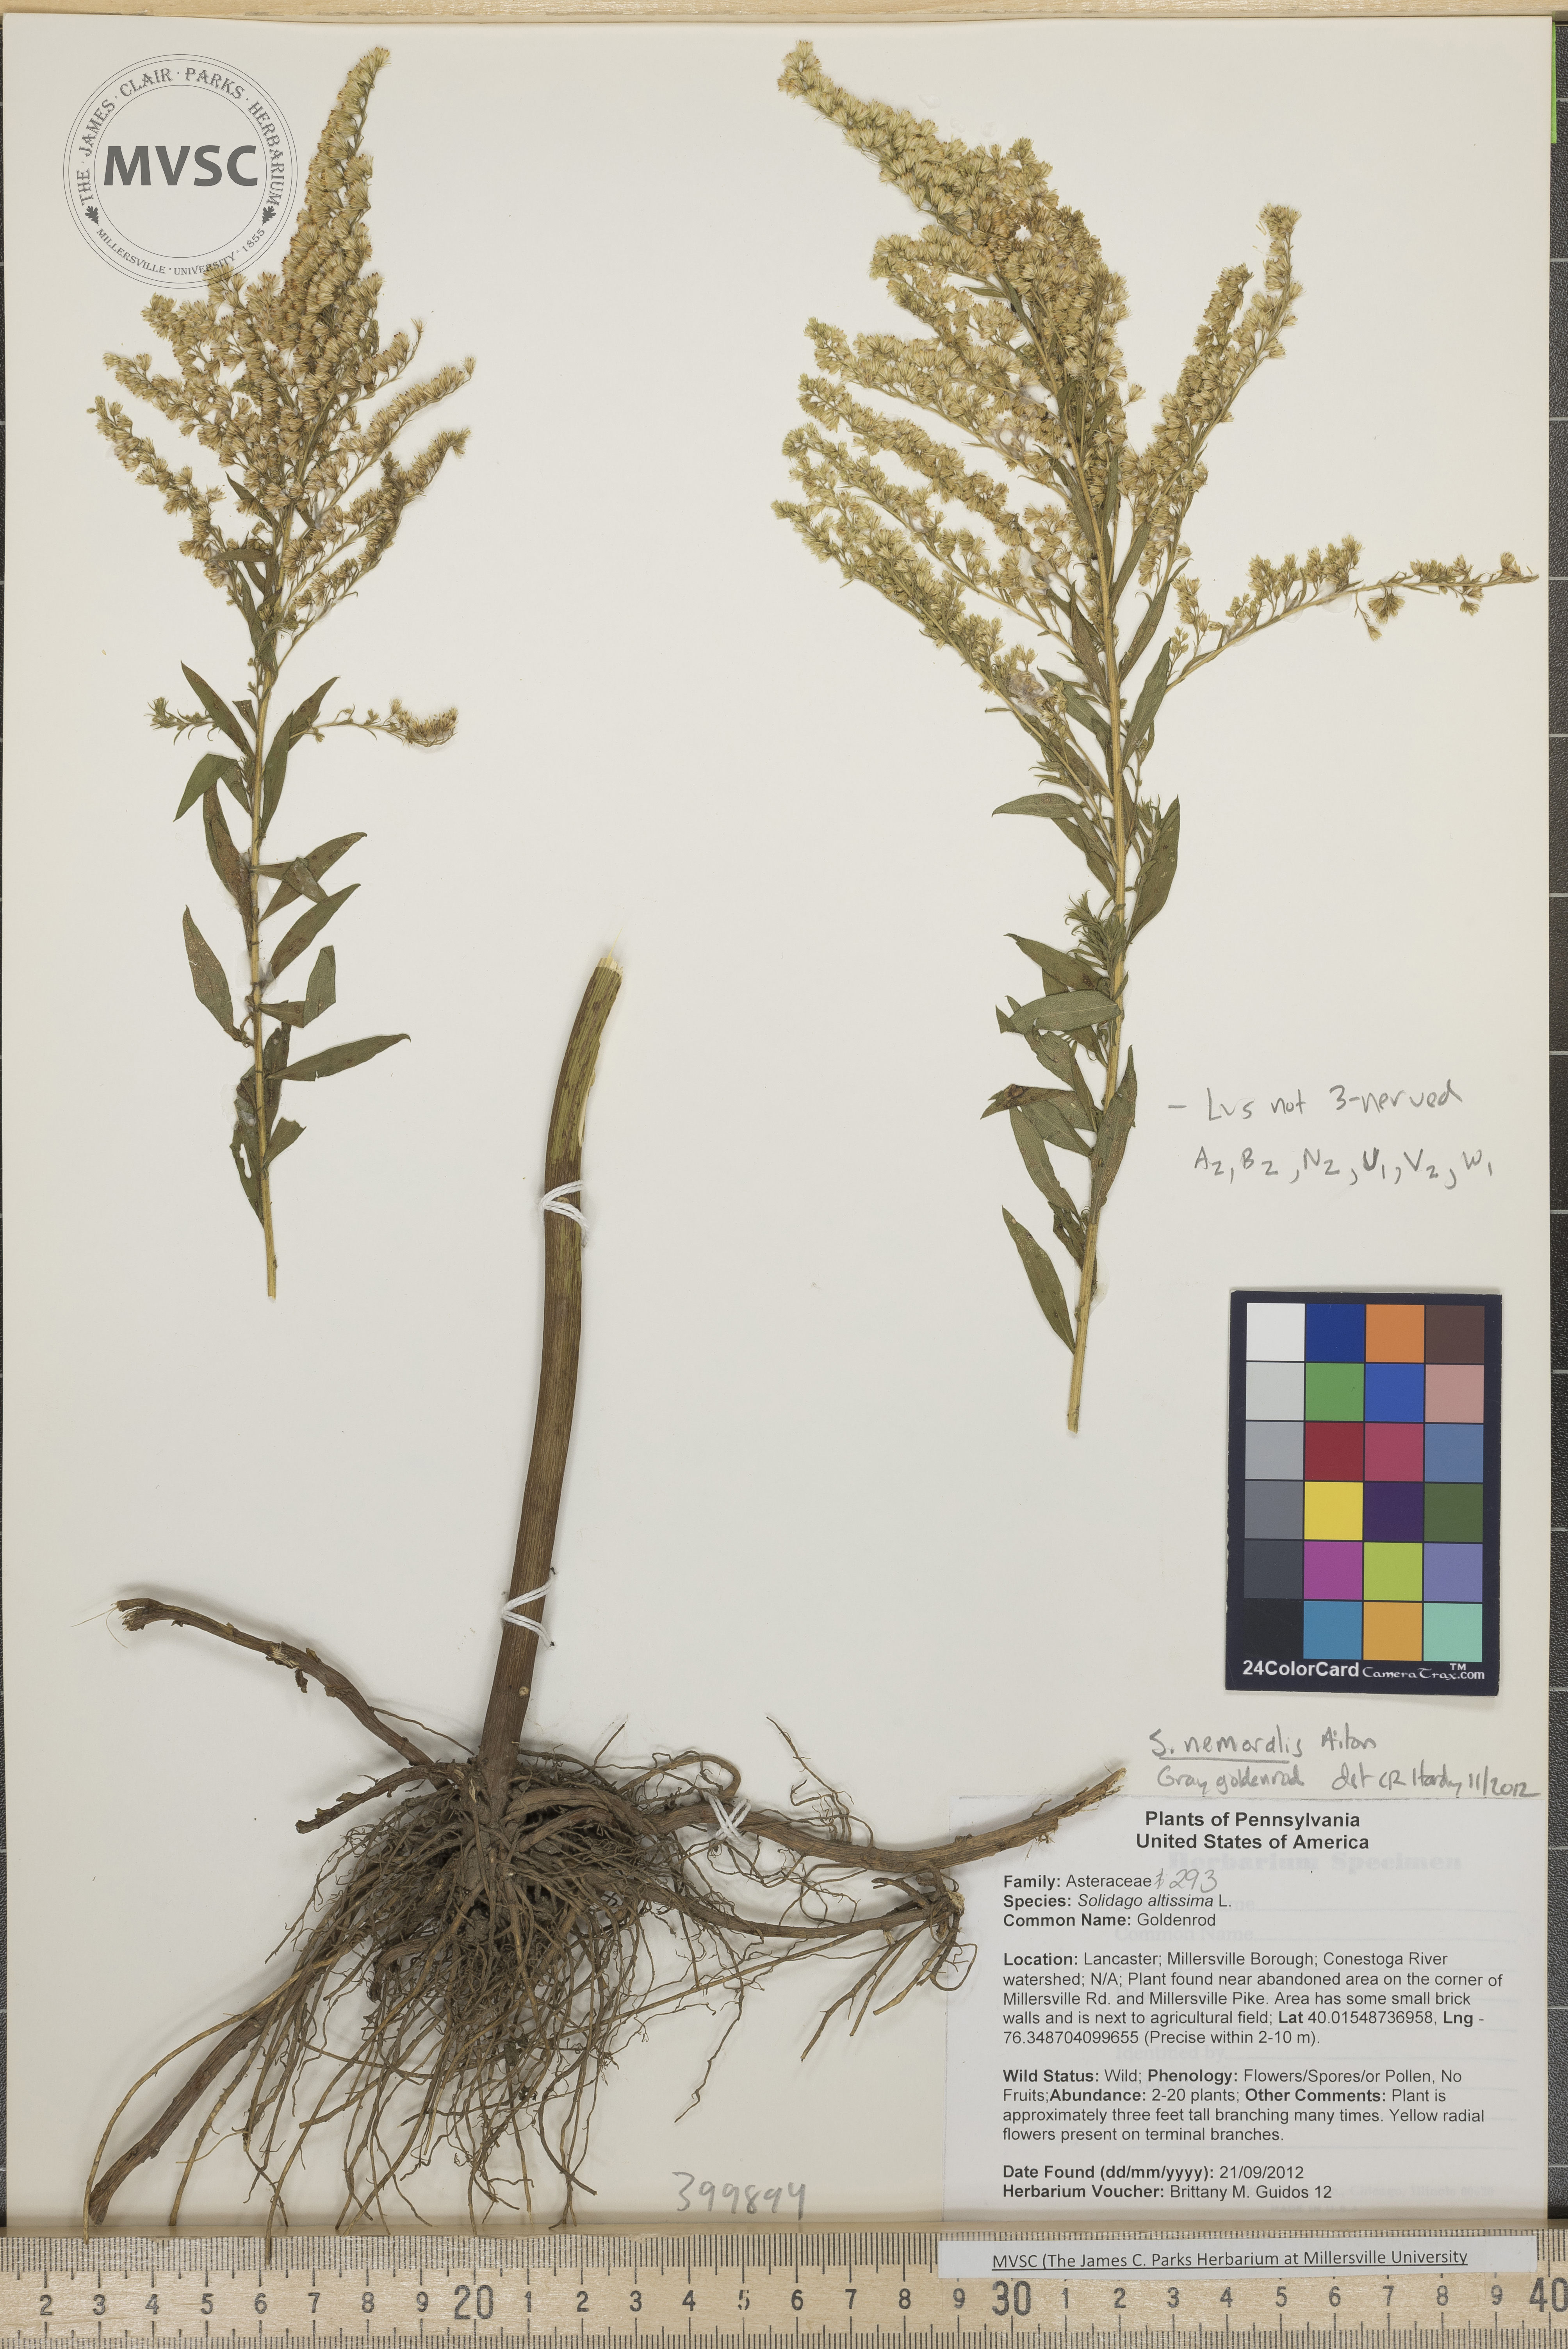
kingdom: Plantae
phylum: Tracheophyta
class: Magnoliopsida
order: Asterales
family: Asteraceae
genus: Solidago
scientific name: Solidago nemoralis
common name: Gray goldenrod
